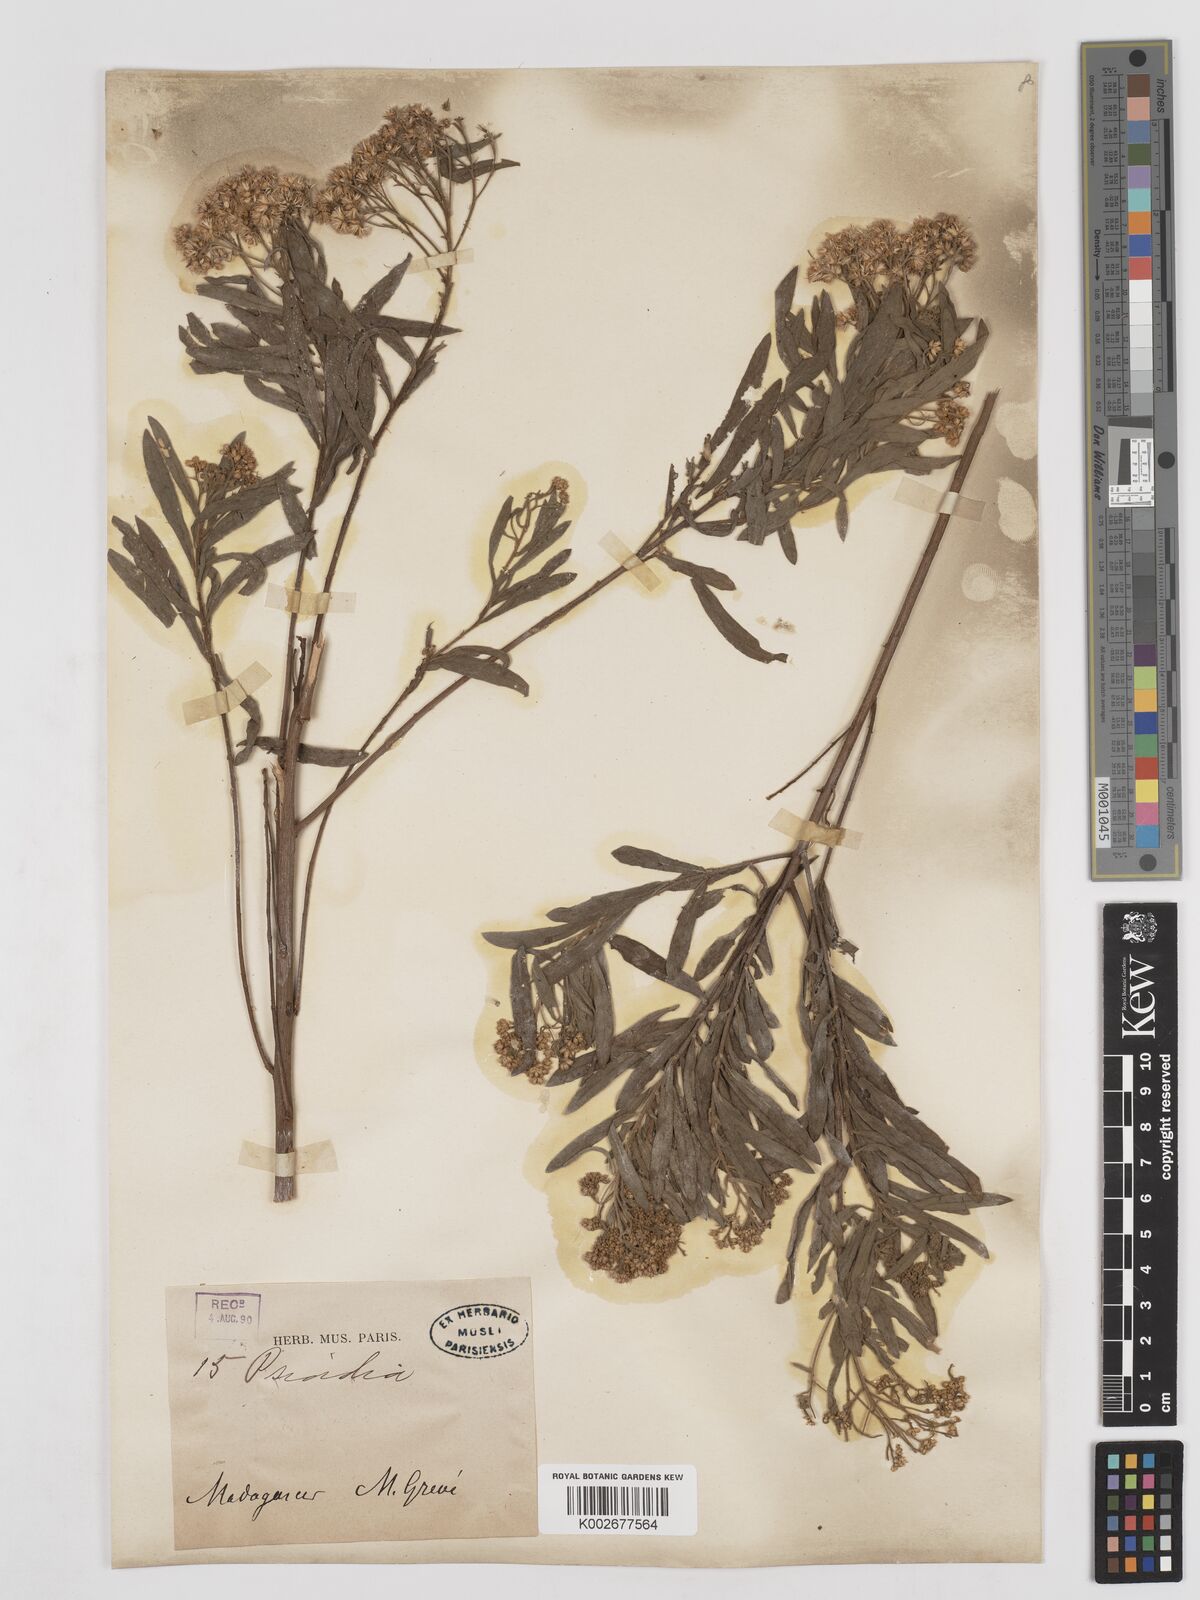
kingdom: Plantae
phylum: Tracheophyta
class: Magnoliopsida
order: Asterales
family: Asteraceae
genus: Psiadia
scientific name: Psiadia
